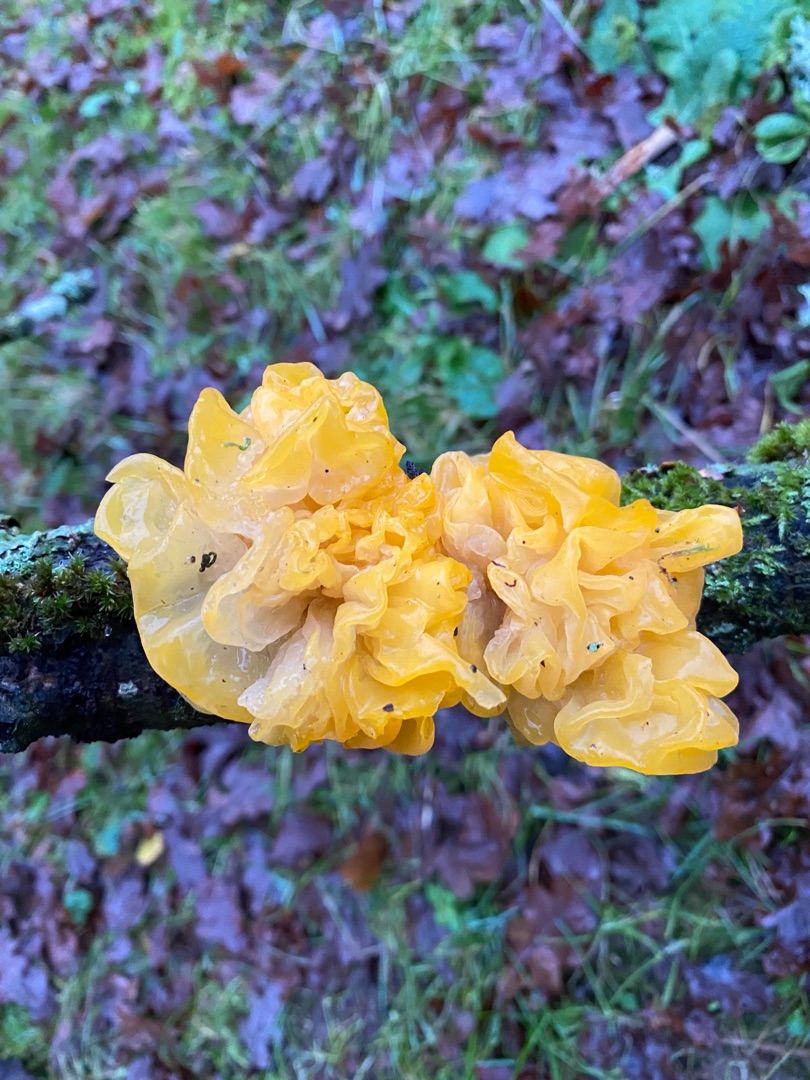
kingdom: Fungi
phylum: Basidiomycota
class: Tremellomycetes
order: Tremellales
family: Tremellaceae
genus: Tremella
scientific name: Tremella mesenterica
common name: Gul bævresvamp
